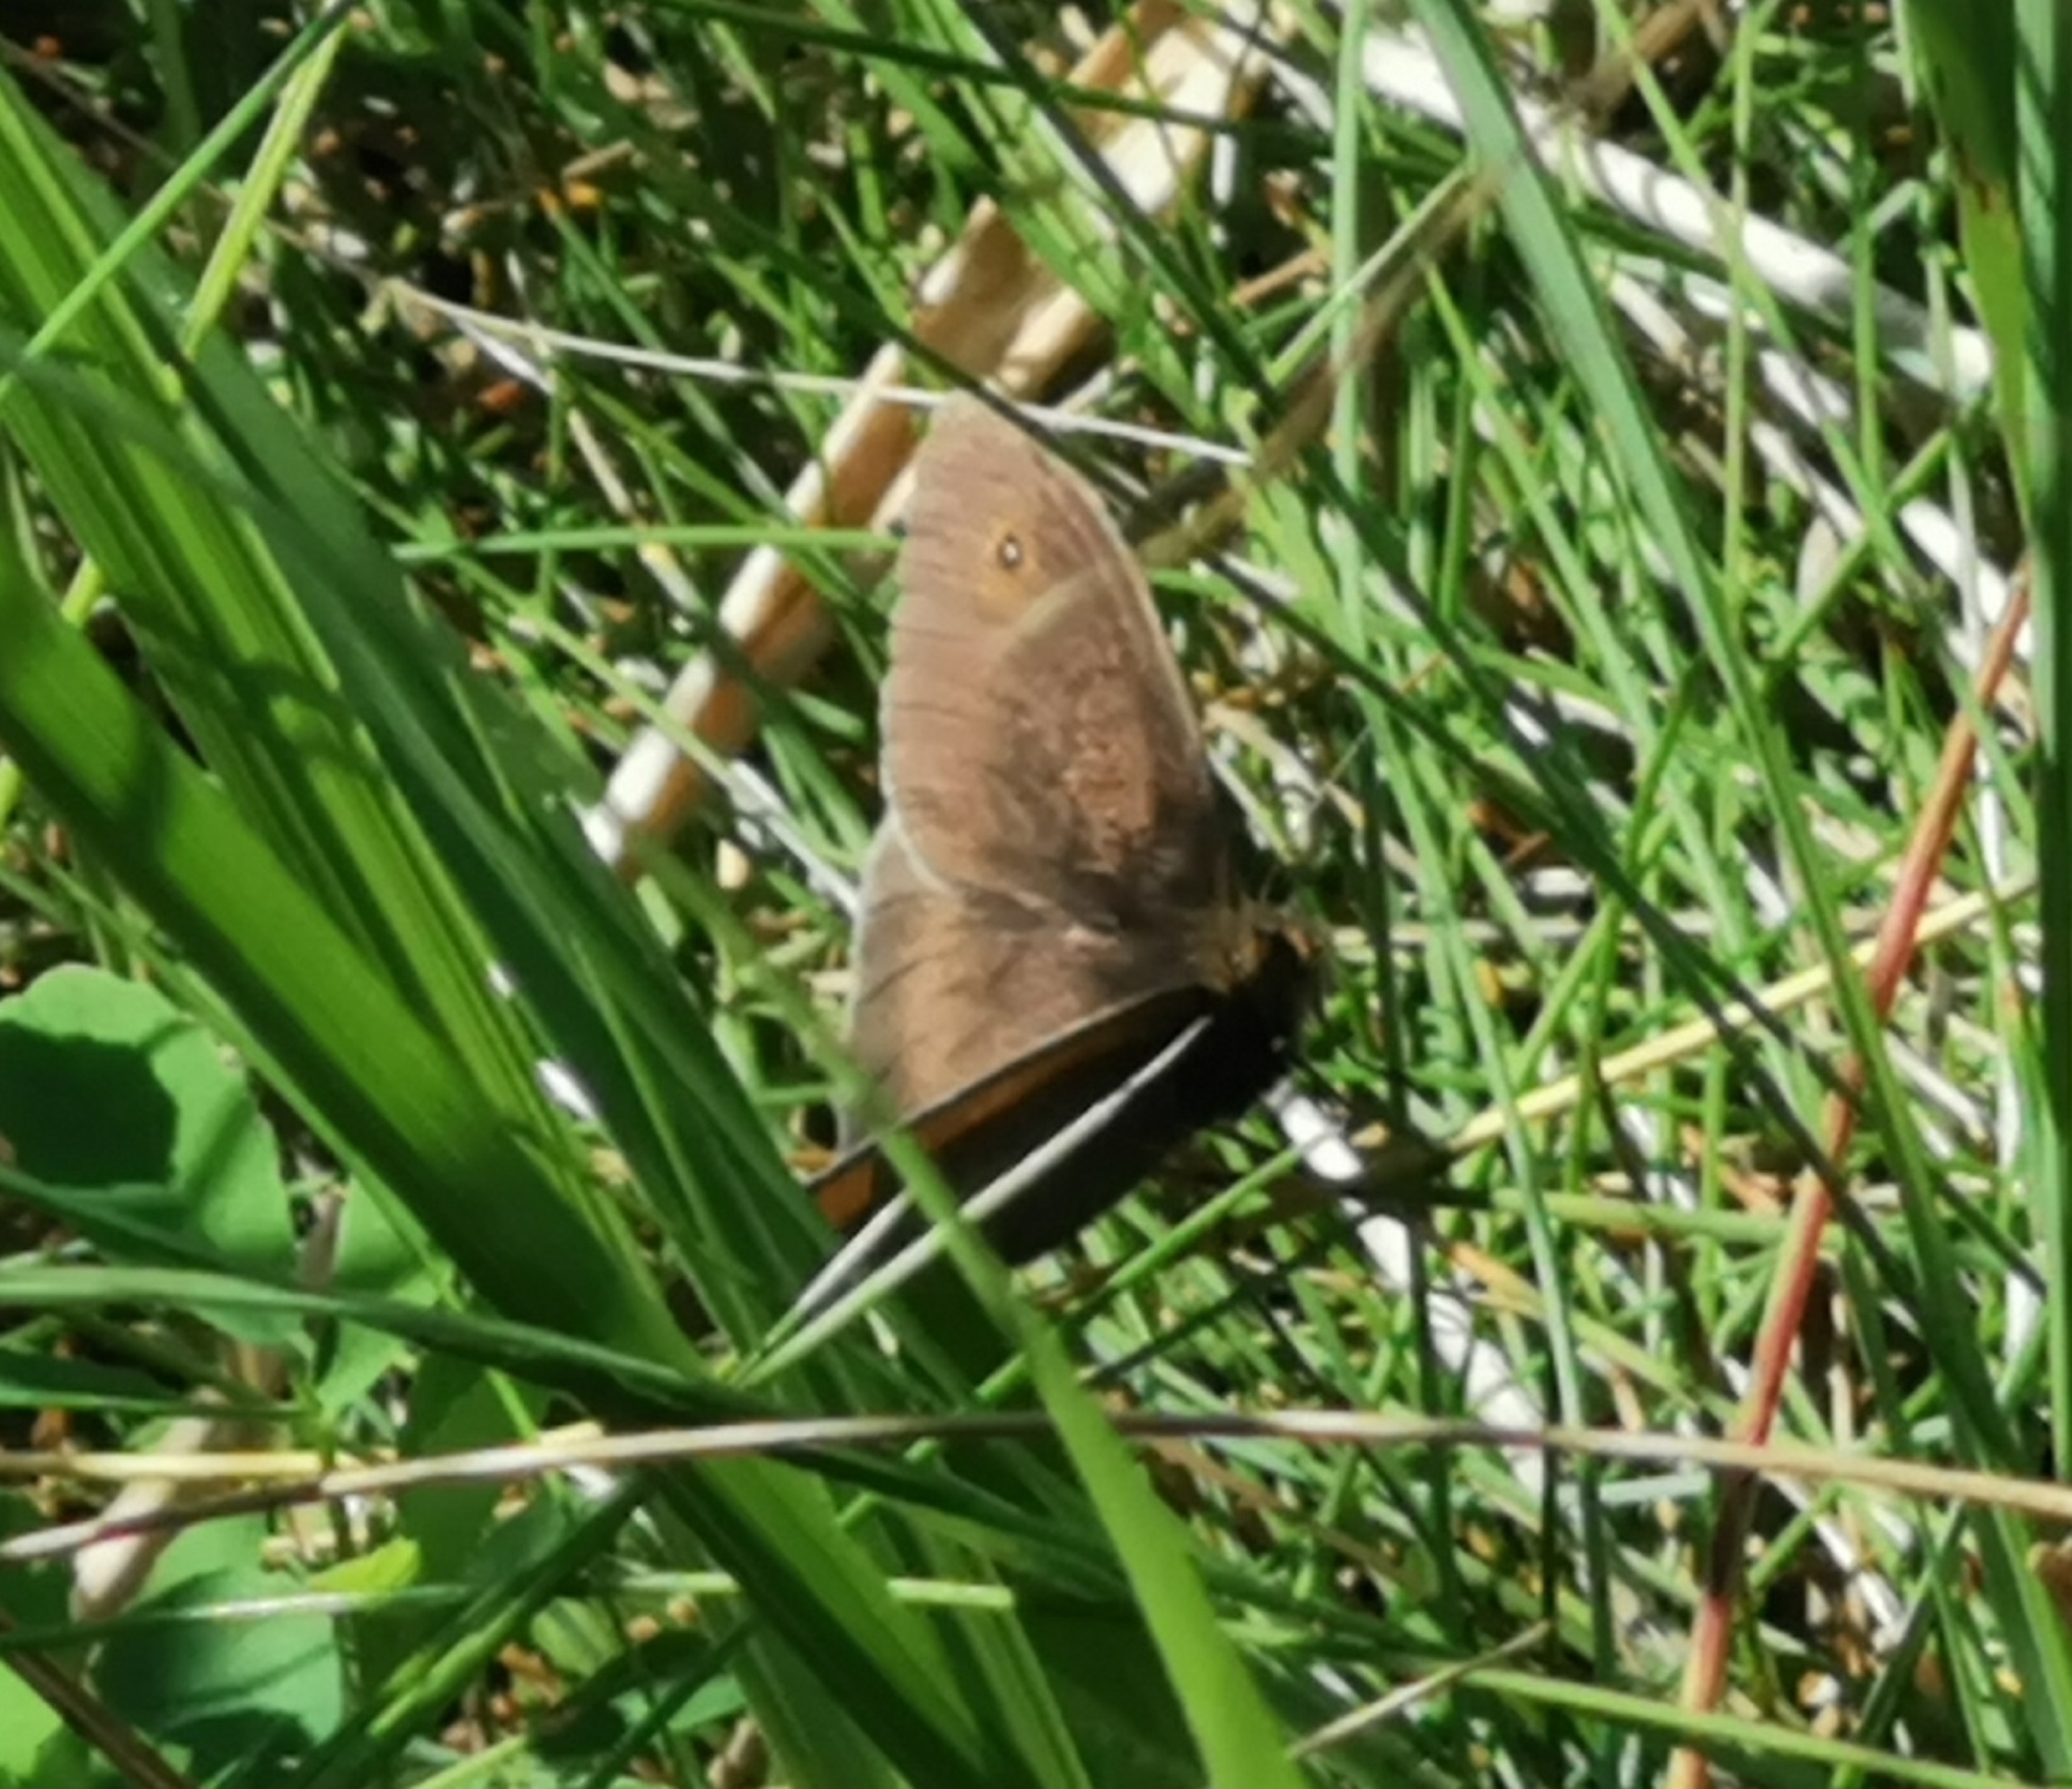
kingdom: Animalia
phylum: Arthropoda
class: Insecta
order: Lepidoptera
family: Nymphalidae
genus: Maniola
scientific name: Maniola jurtina
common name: Græsrandøje
